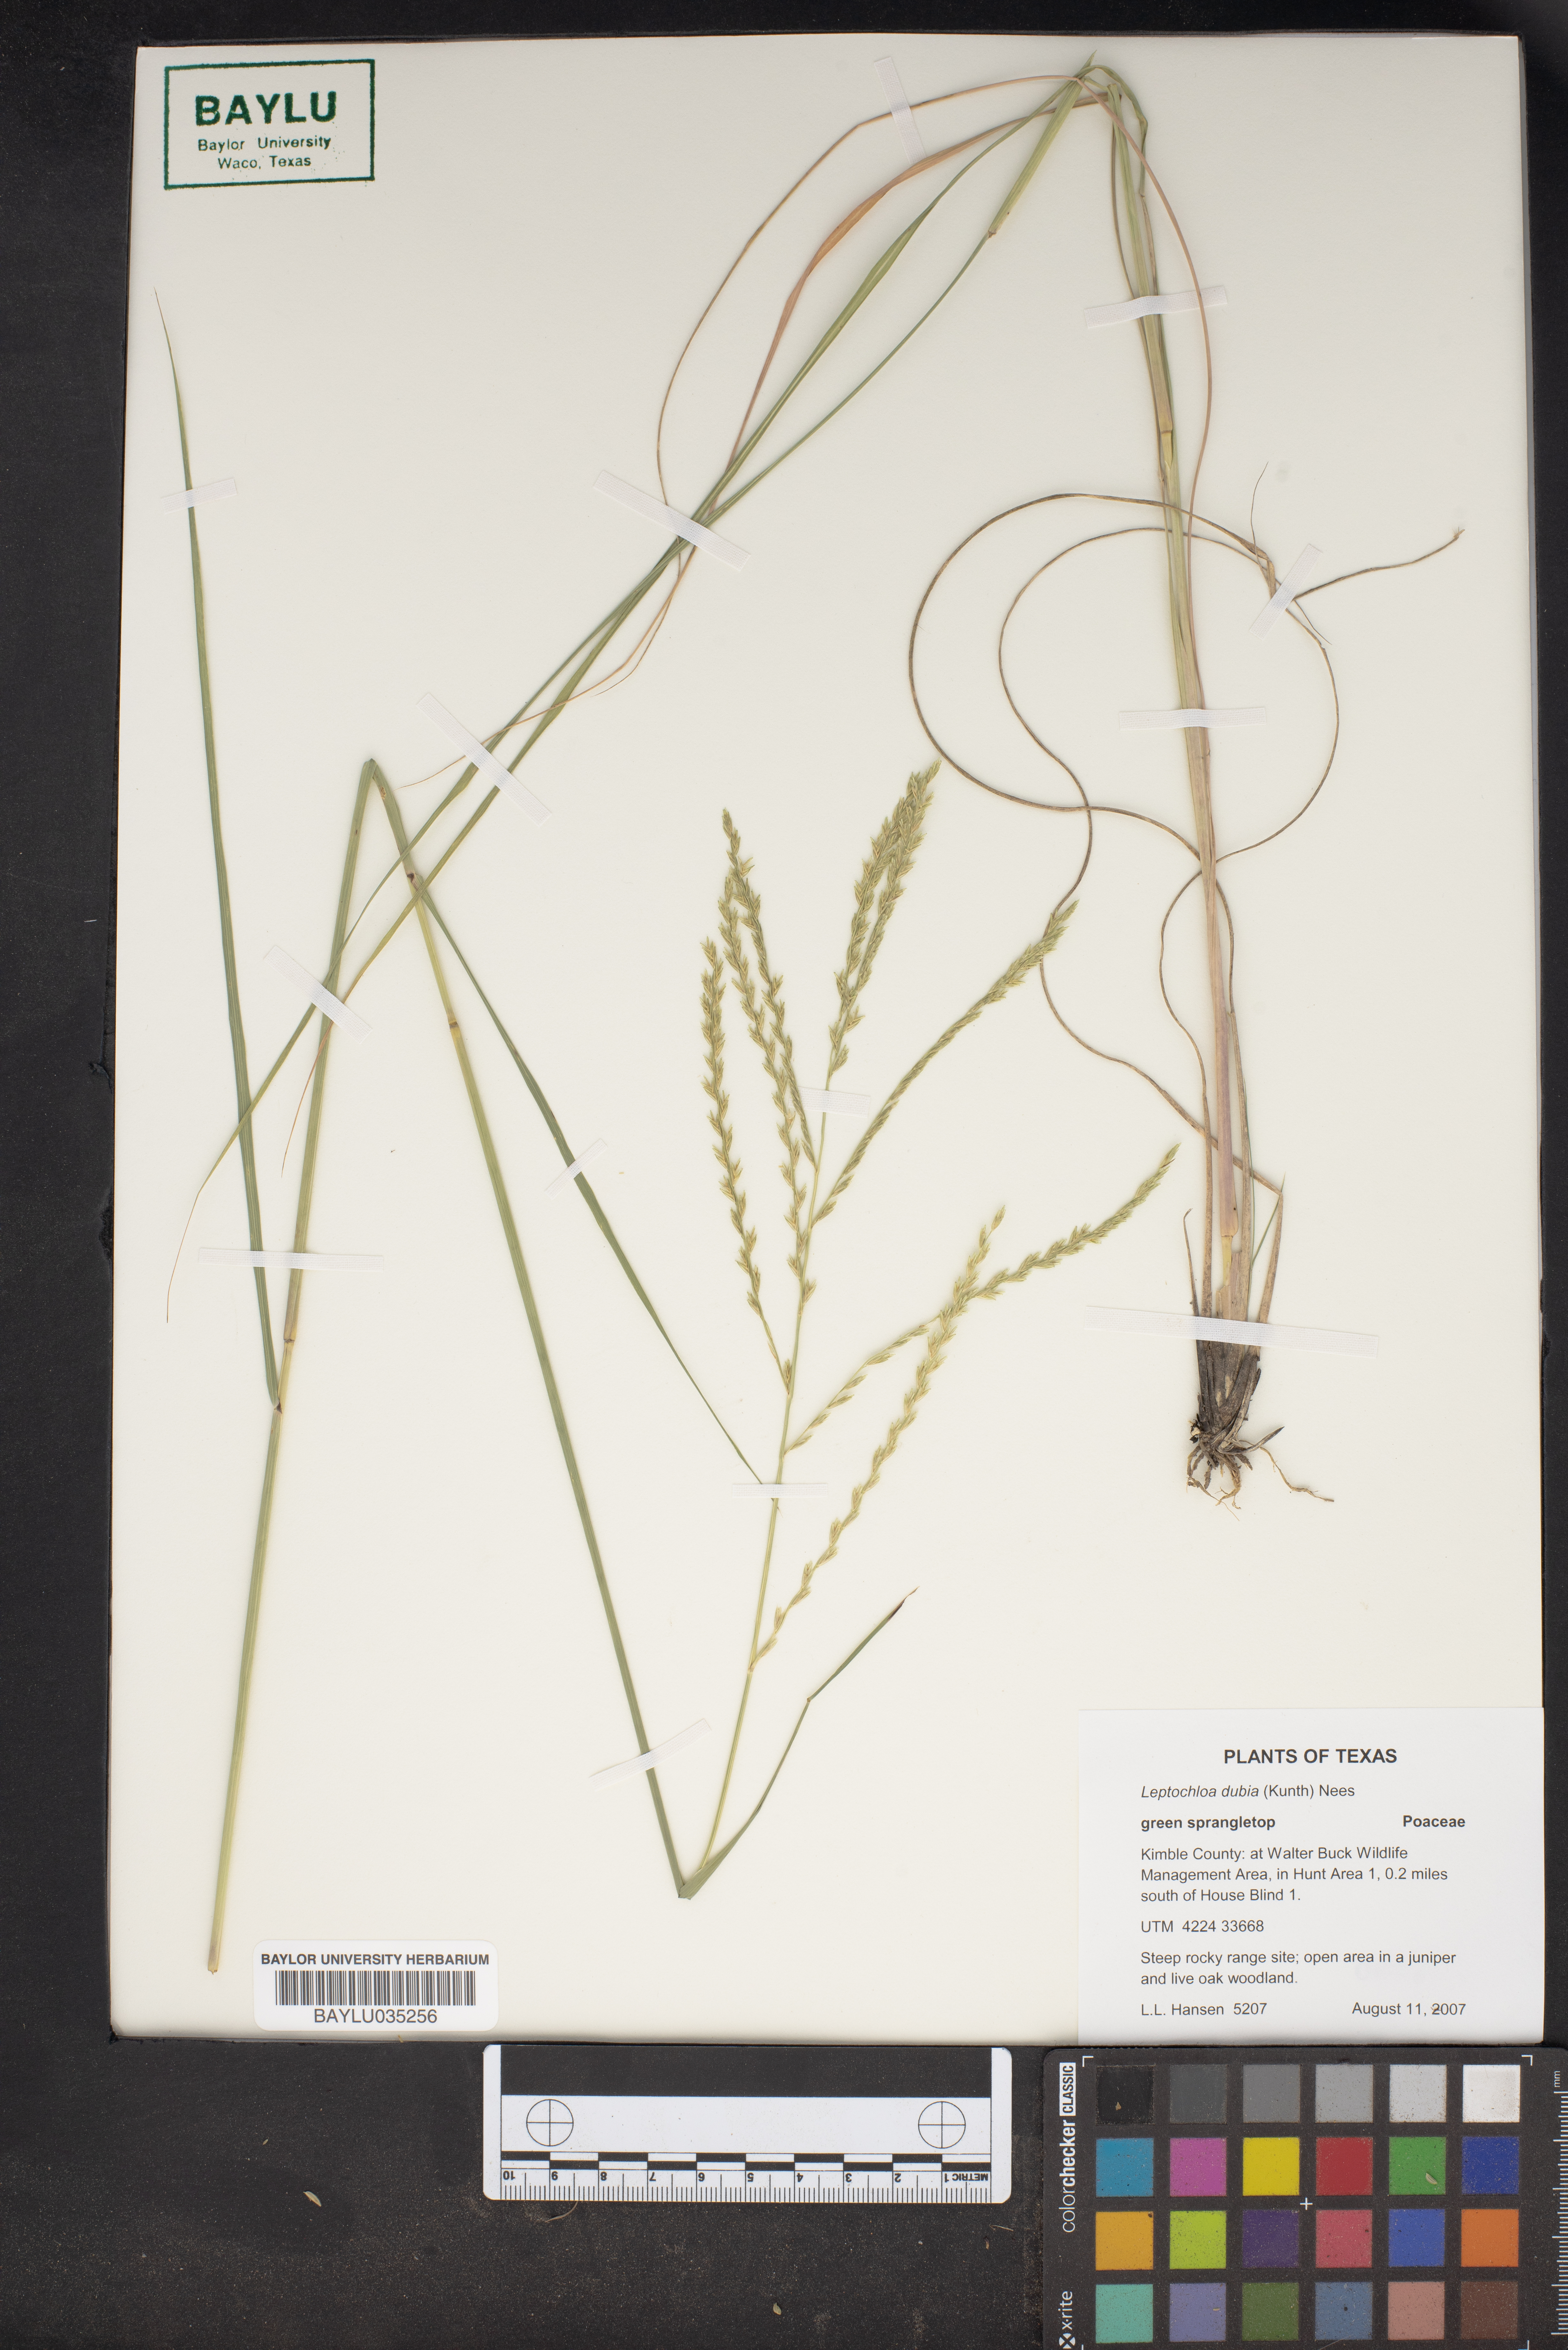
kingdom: Plantae
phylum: Tracheophyta
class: Liliopsida
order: Poales
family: Poaceae
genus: Disakisperma
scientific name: Disakisperma dubium
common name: Green sprangletop
